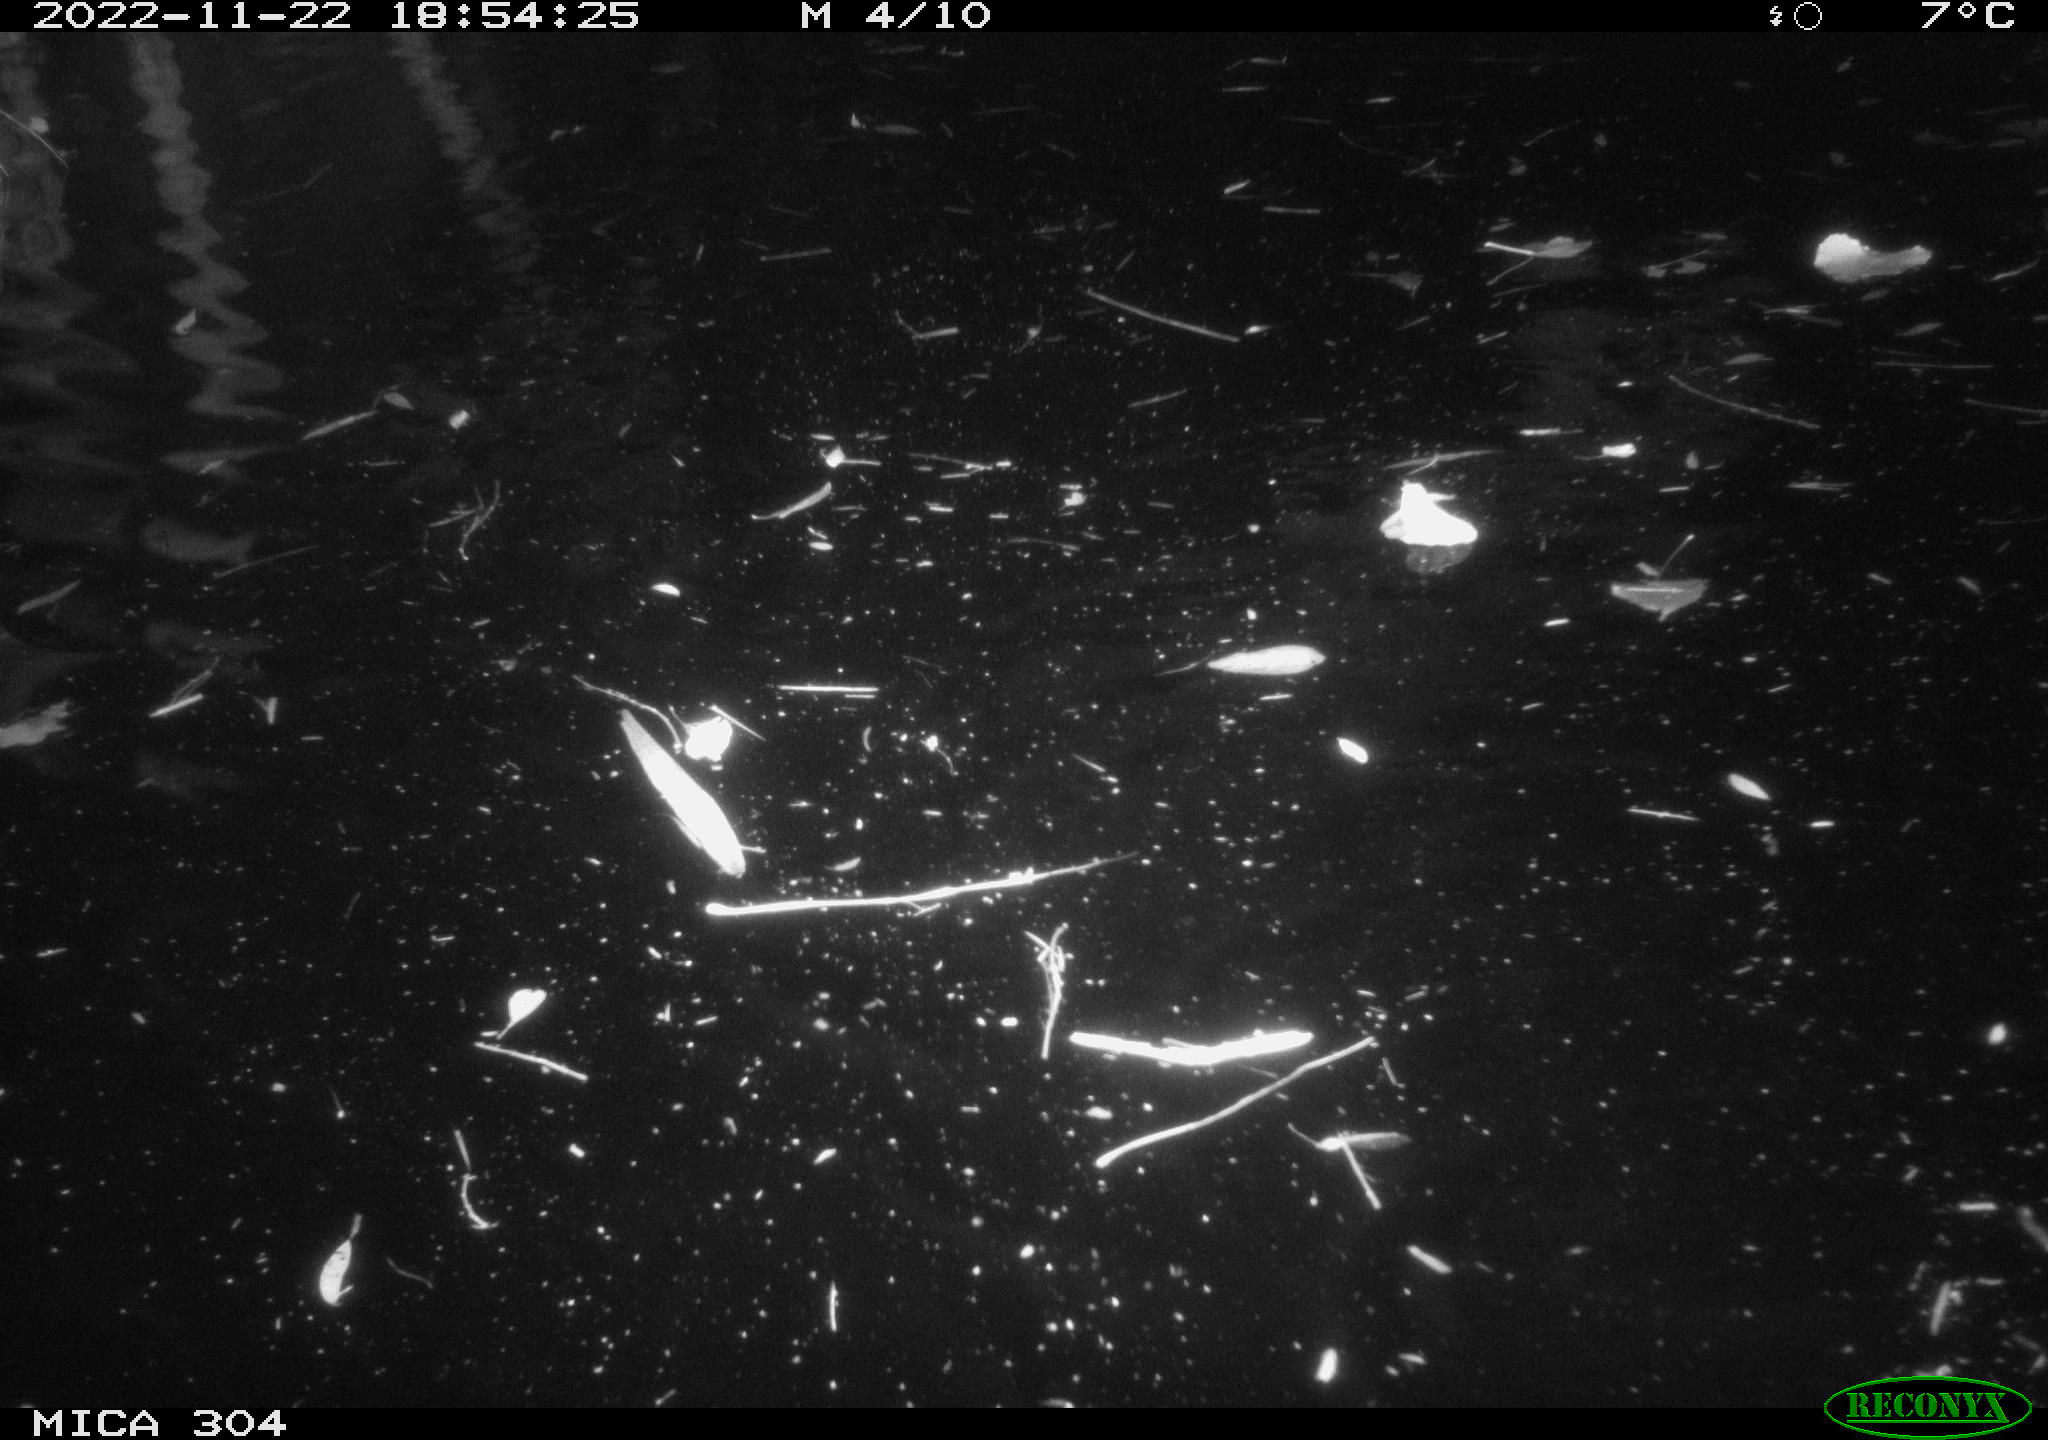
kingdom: Animalia
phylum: Chordata
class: Mammalia
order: Rodentia
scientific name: Rodentia
